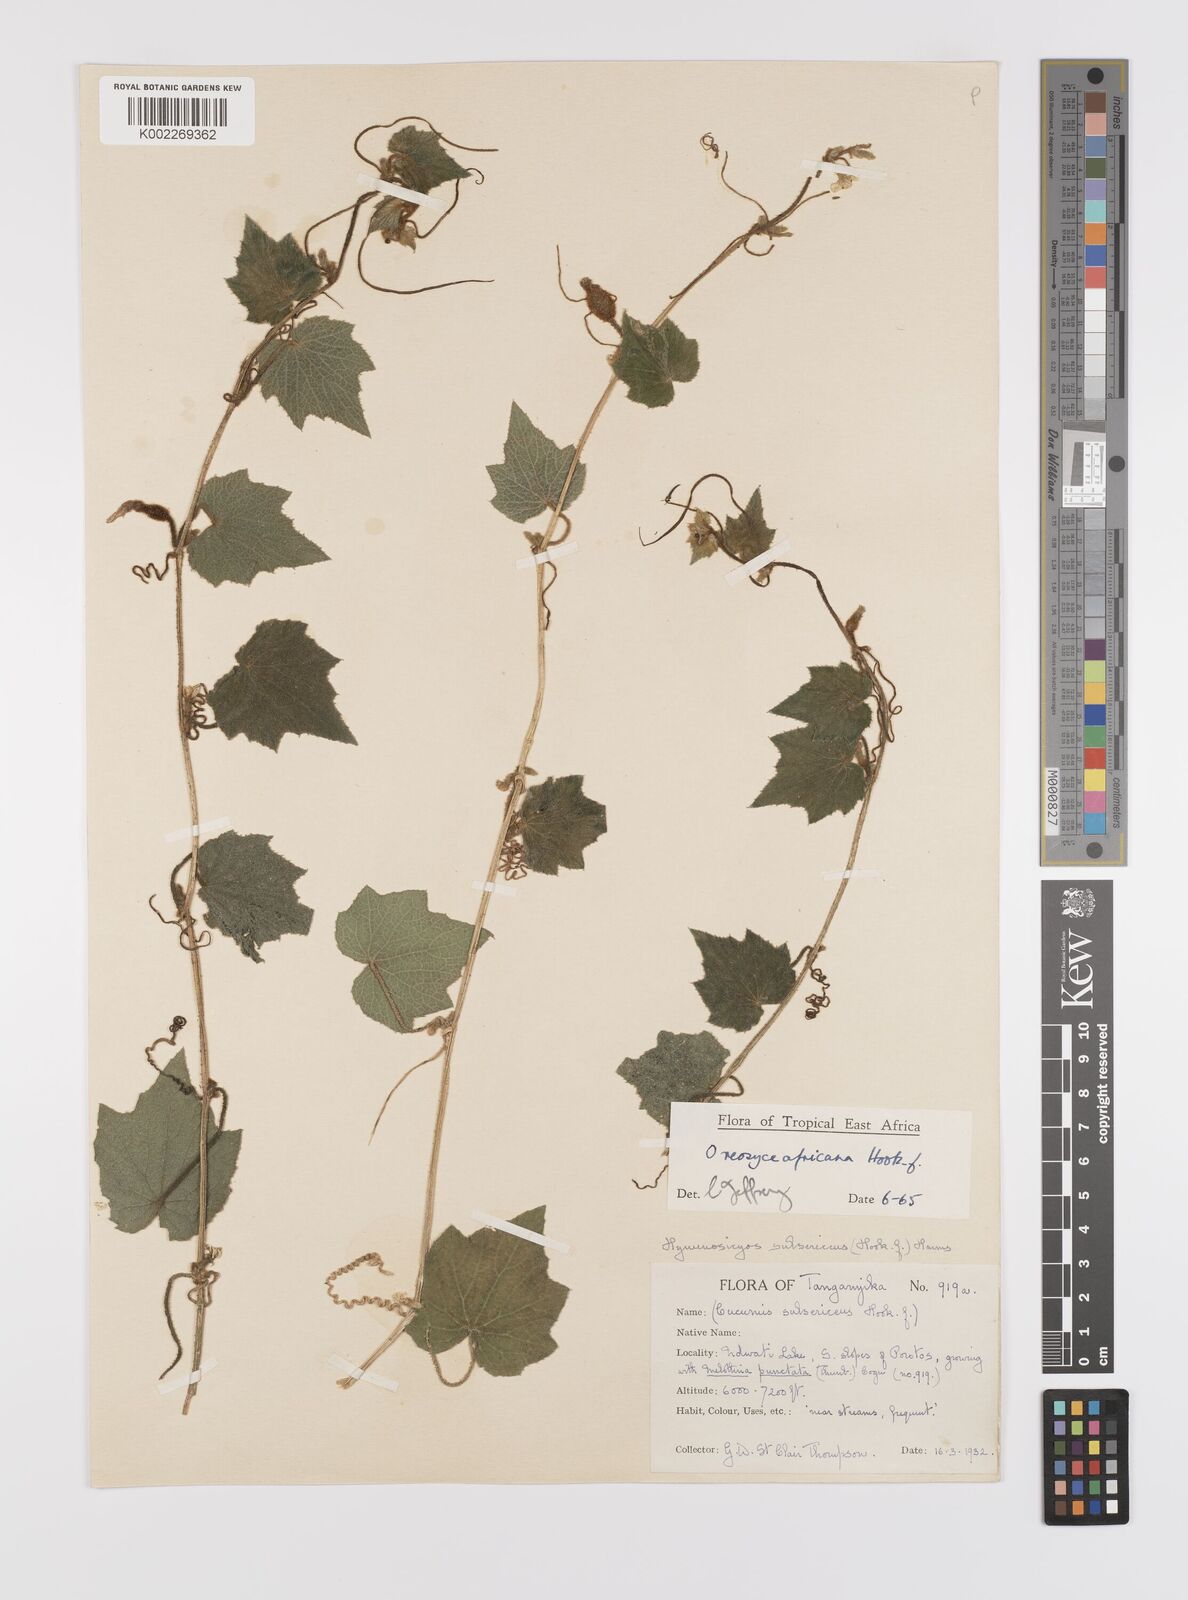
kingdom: Plantae
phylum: Tracheophyta
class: Magnoliopsida
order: Cucurbitales
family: Cucurbitaceae
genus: Cucumis
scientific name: Cucumis oreosyce
